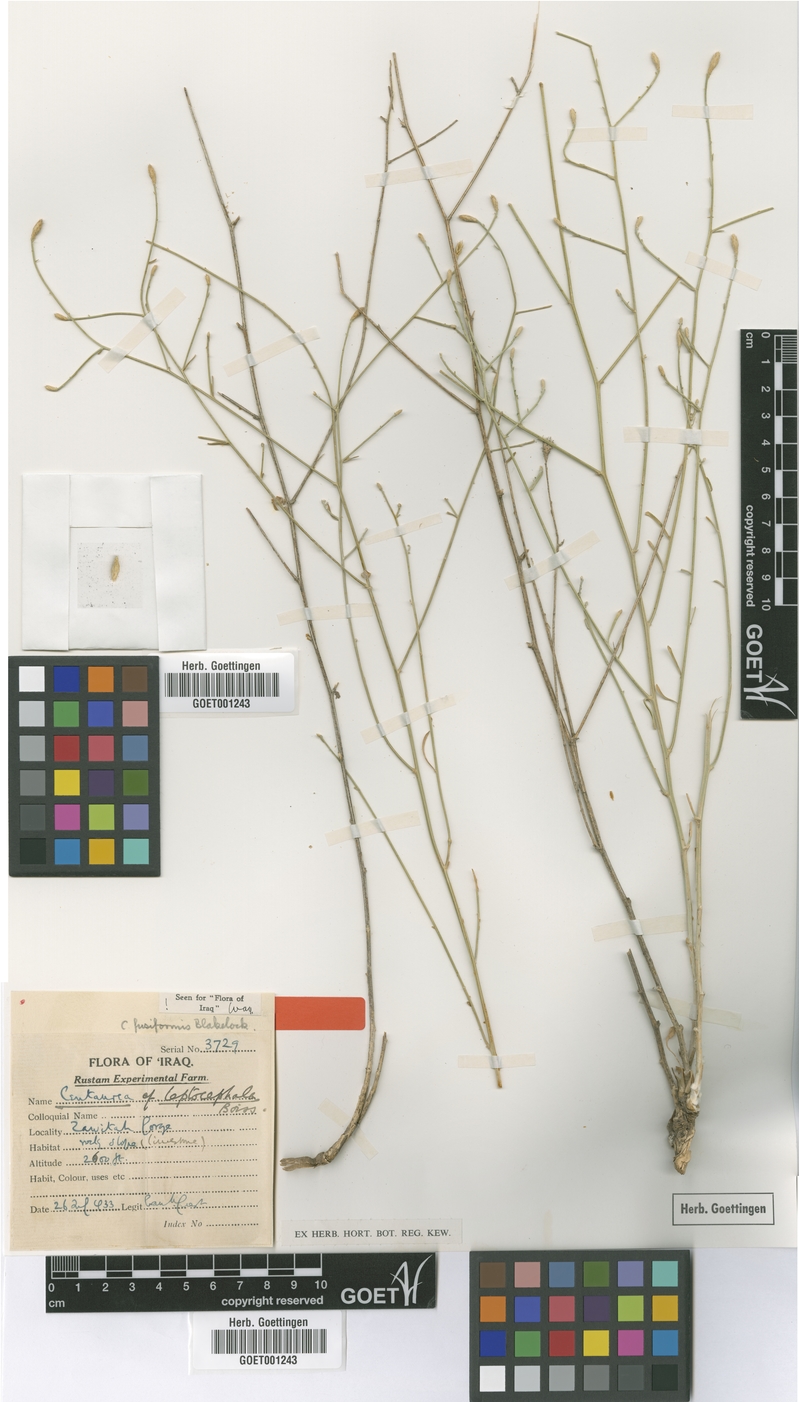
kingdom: Plantae
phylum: Tracheophyta
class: Magnoliopsida
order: Asterales
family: Asteraceae
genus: Centaurea
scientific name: Centaurea fusiformis
